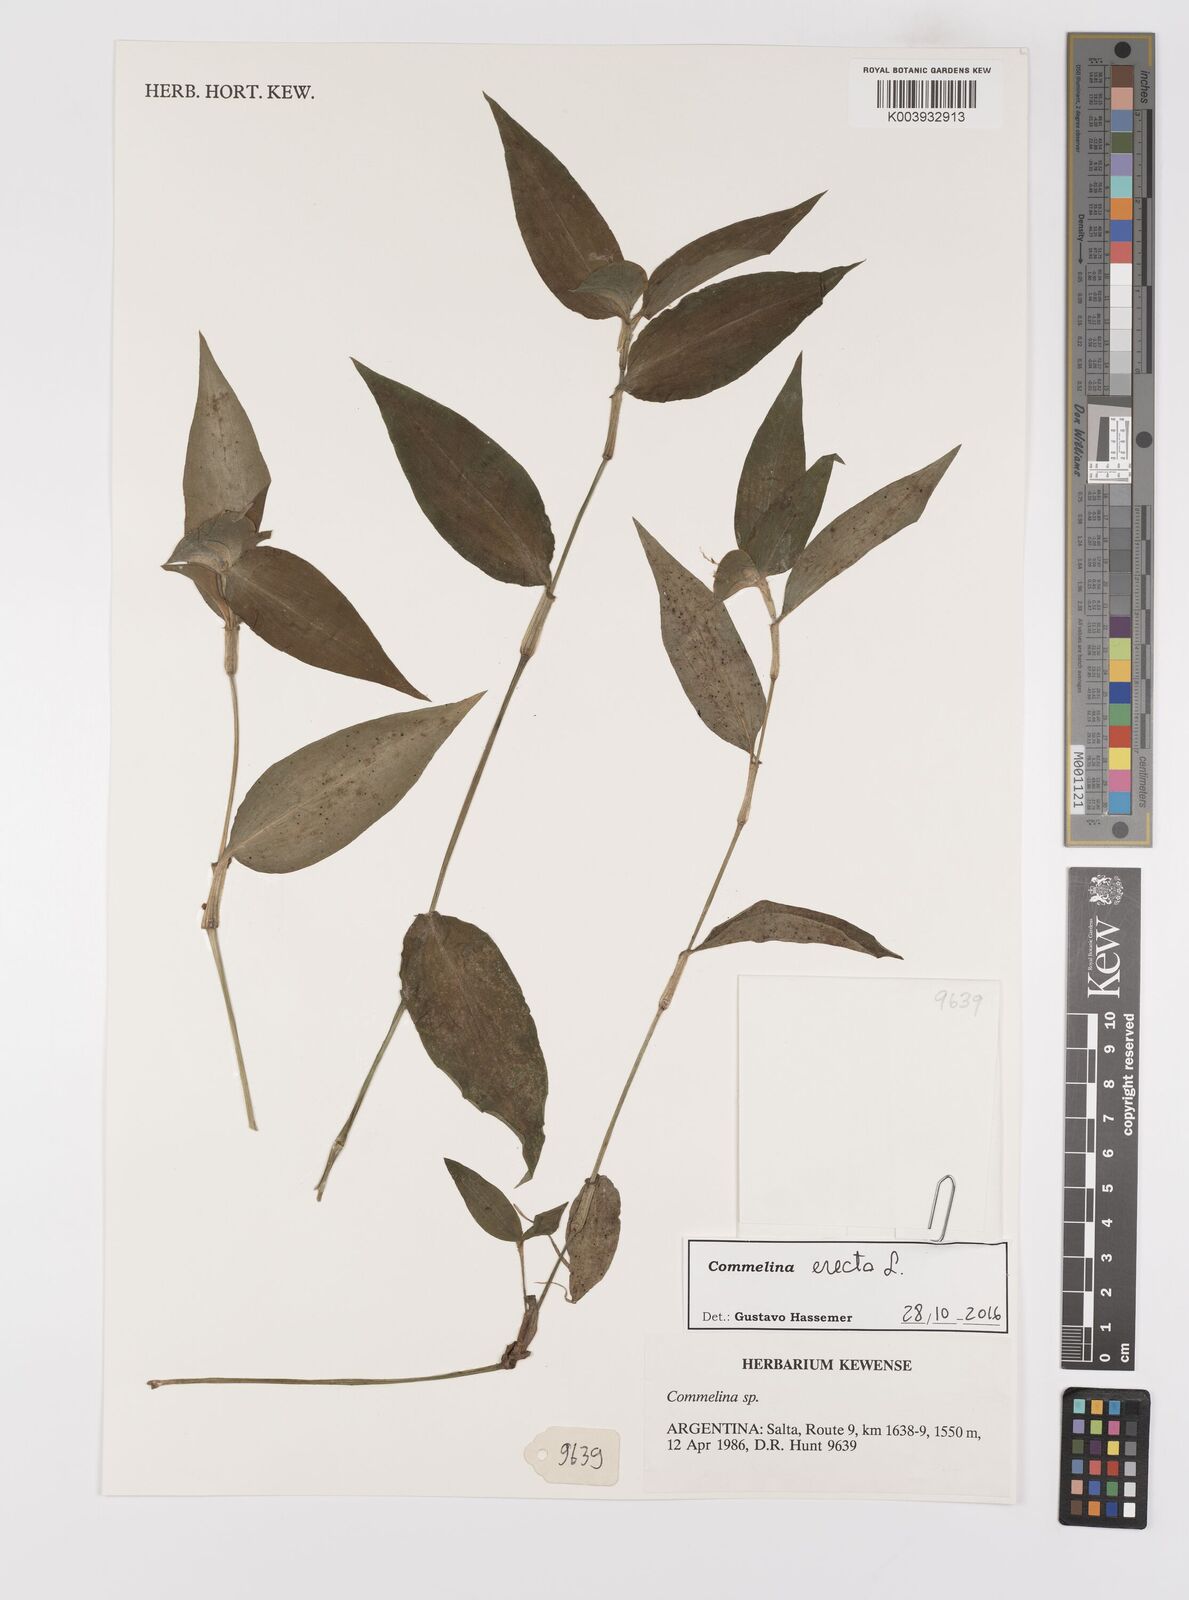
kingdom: Plantae
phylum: Tracheophyta
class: Liliopsida
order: Commelinales
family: Commelinaceae
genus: Commelina
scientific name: Commelina erecta
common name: Blousel blommetjie
